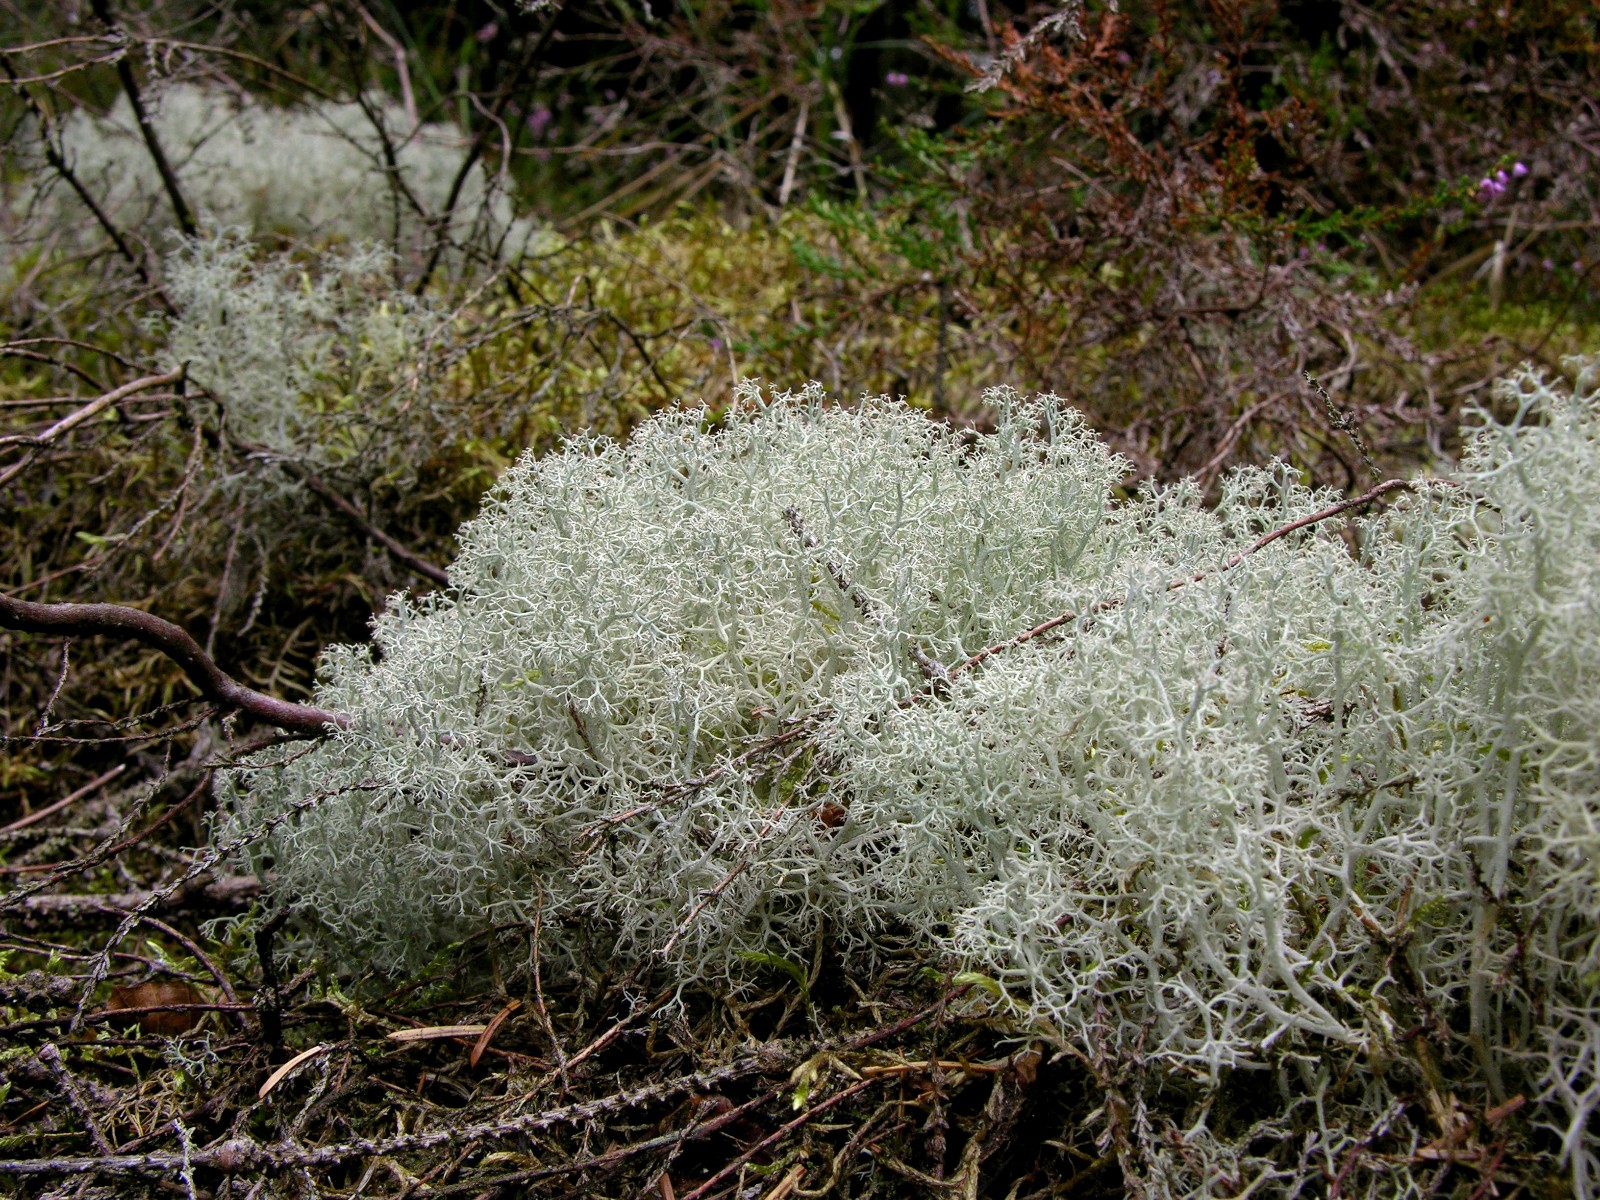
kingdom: Fungi
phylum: Ascomycota
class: Lecanoromycetes
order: Lecanorales
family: Cladoniaceae
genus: Cladonia
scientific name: Cladonia portentosa
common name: hede-rensdyrlav
